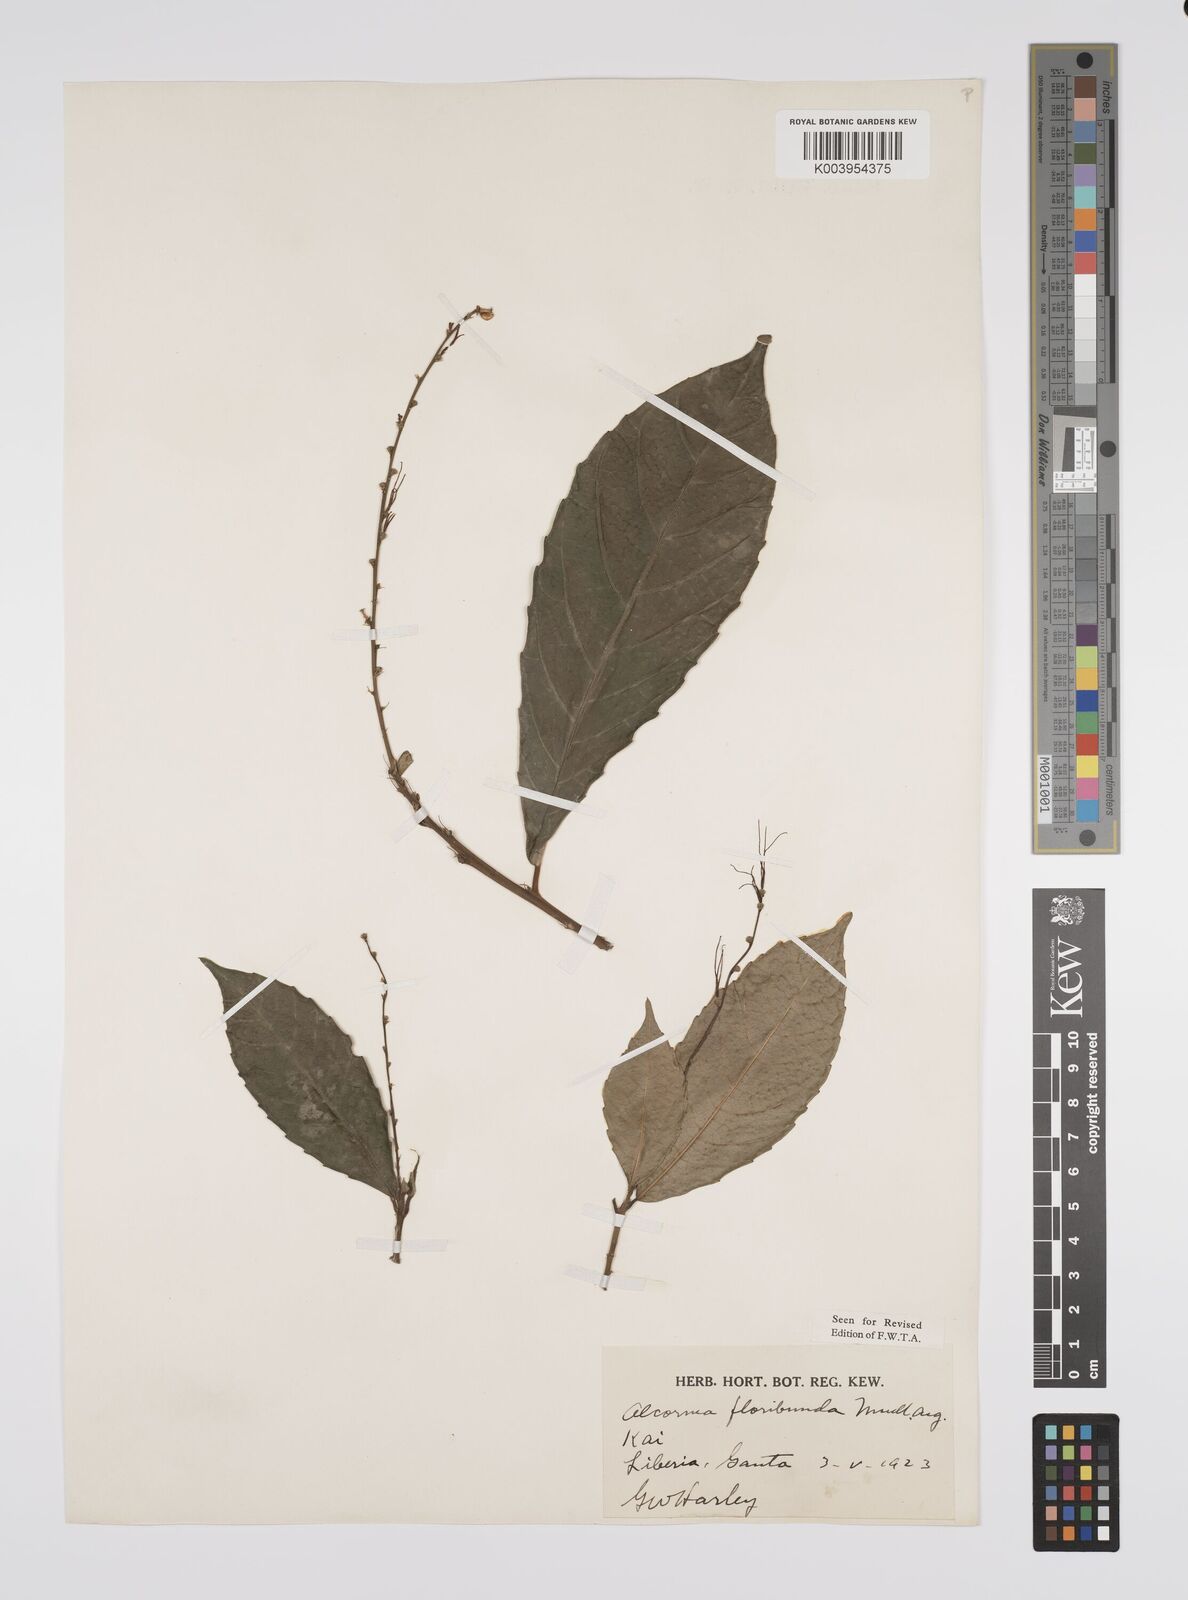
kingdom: Plantae
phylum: Tracheophyta
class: Magnoliopsida
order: Malpighiales
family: Euphorbiaceae
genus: Alchornea
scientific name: Alchornea floribunda
